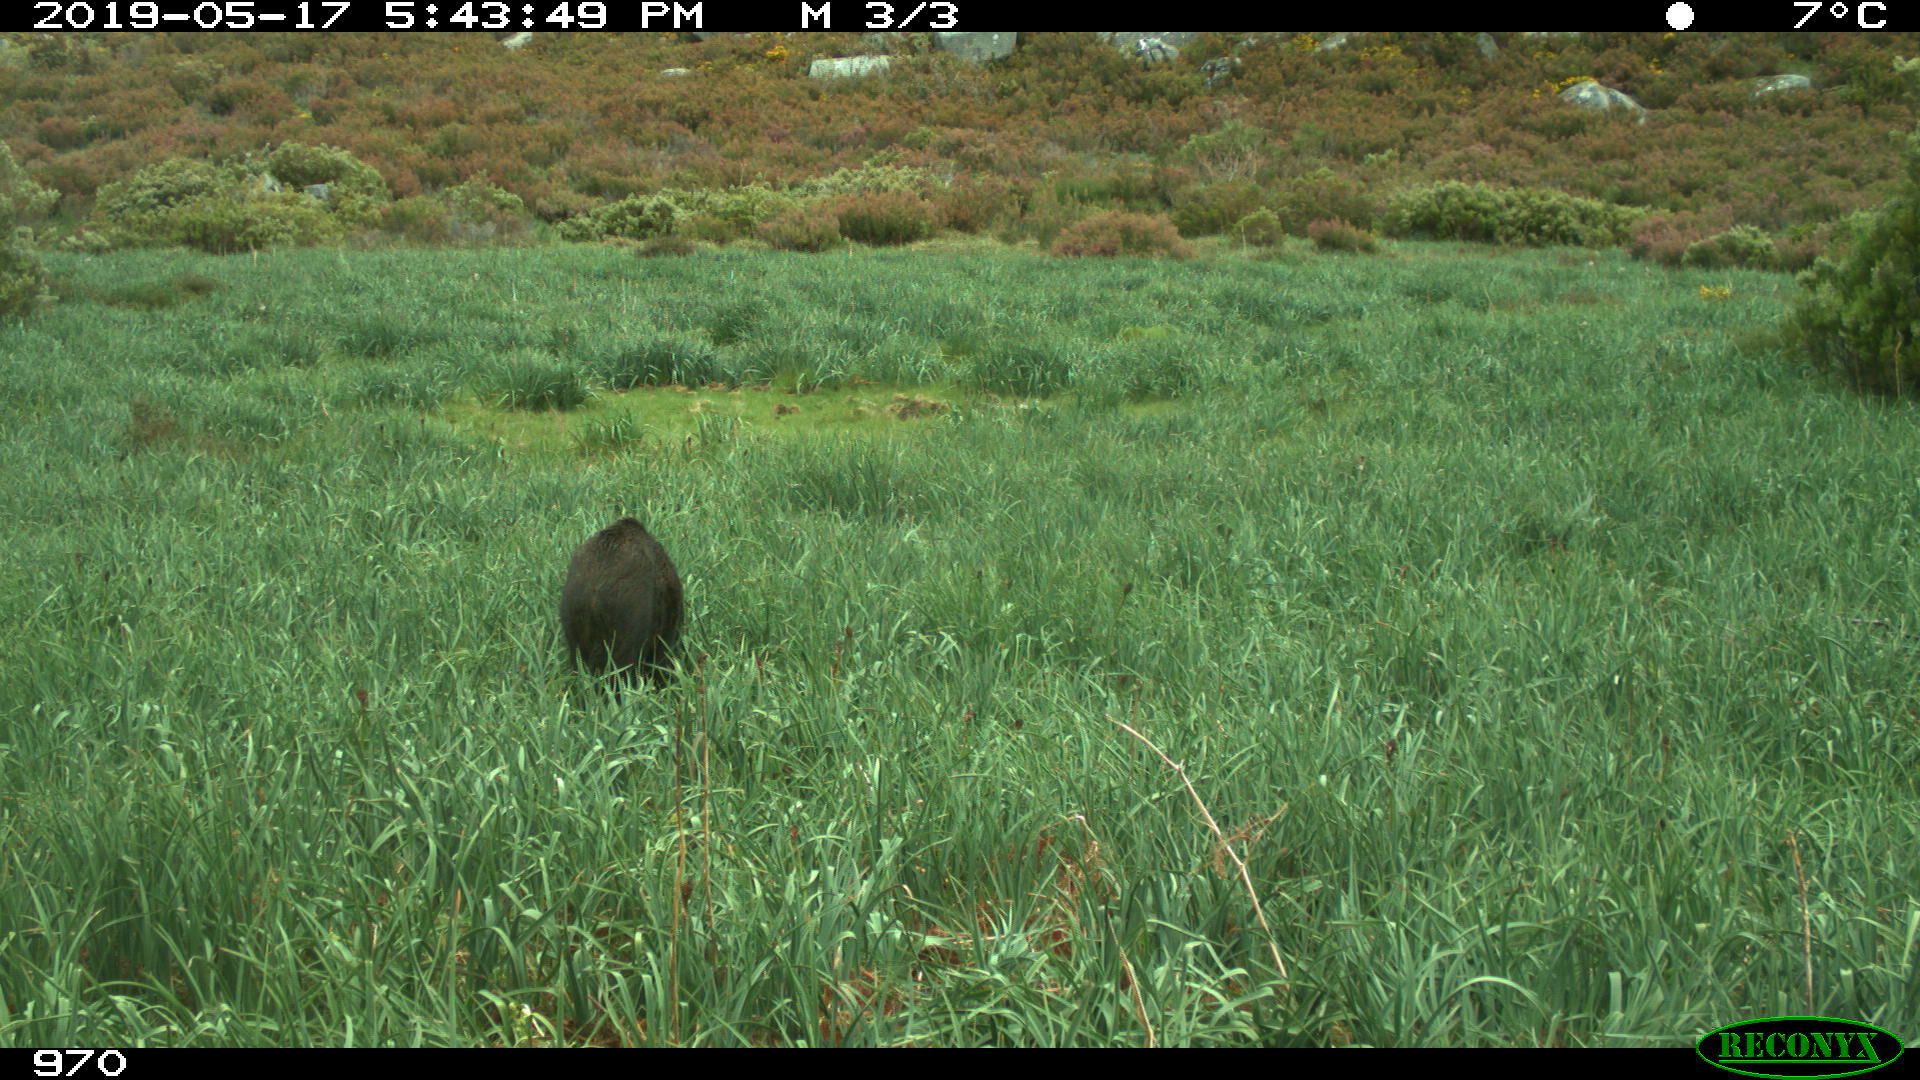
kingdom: Animalia
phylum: Chordata
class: Mammalia
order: Artiodactyla
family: Suidae
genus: Sus
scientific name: Sus scrofa
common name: Wild boar
